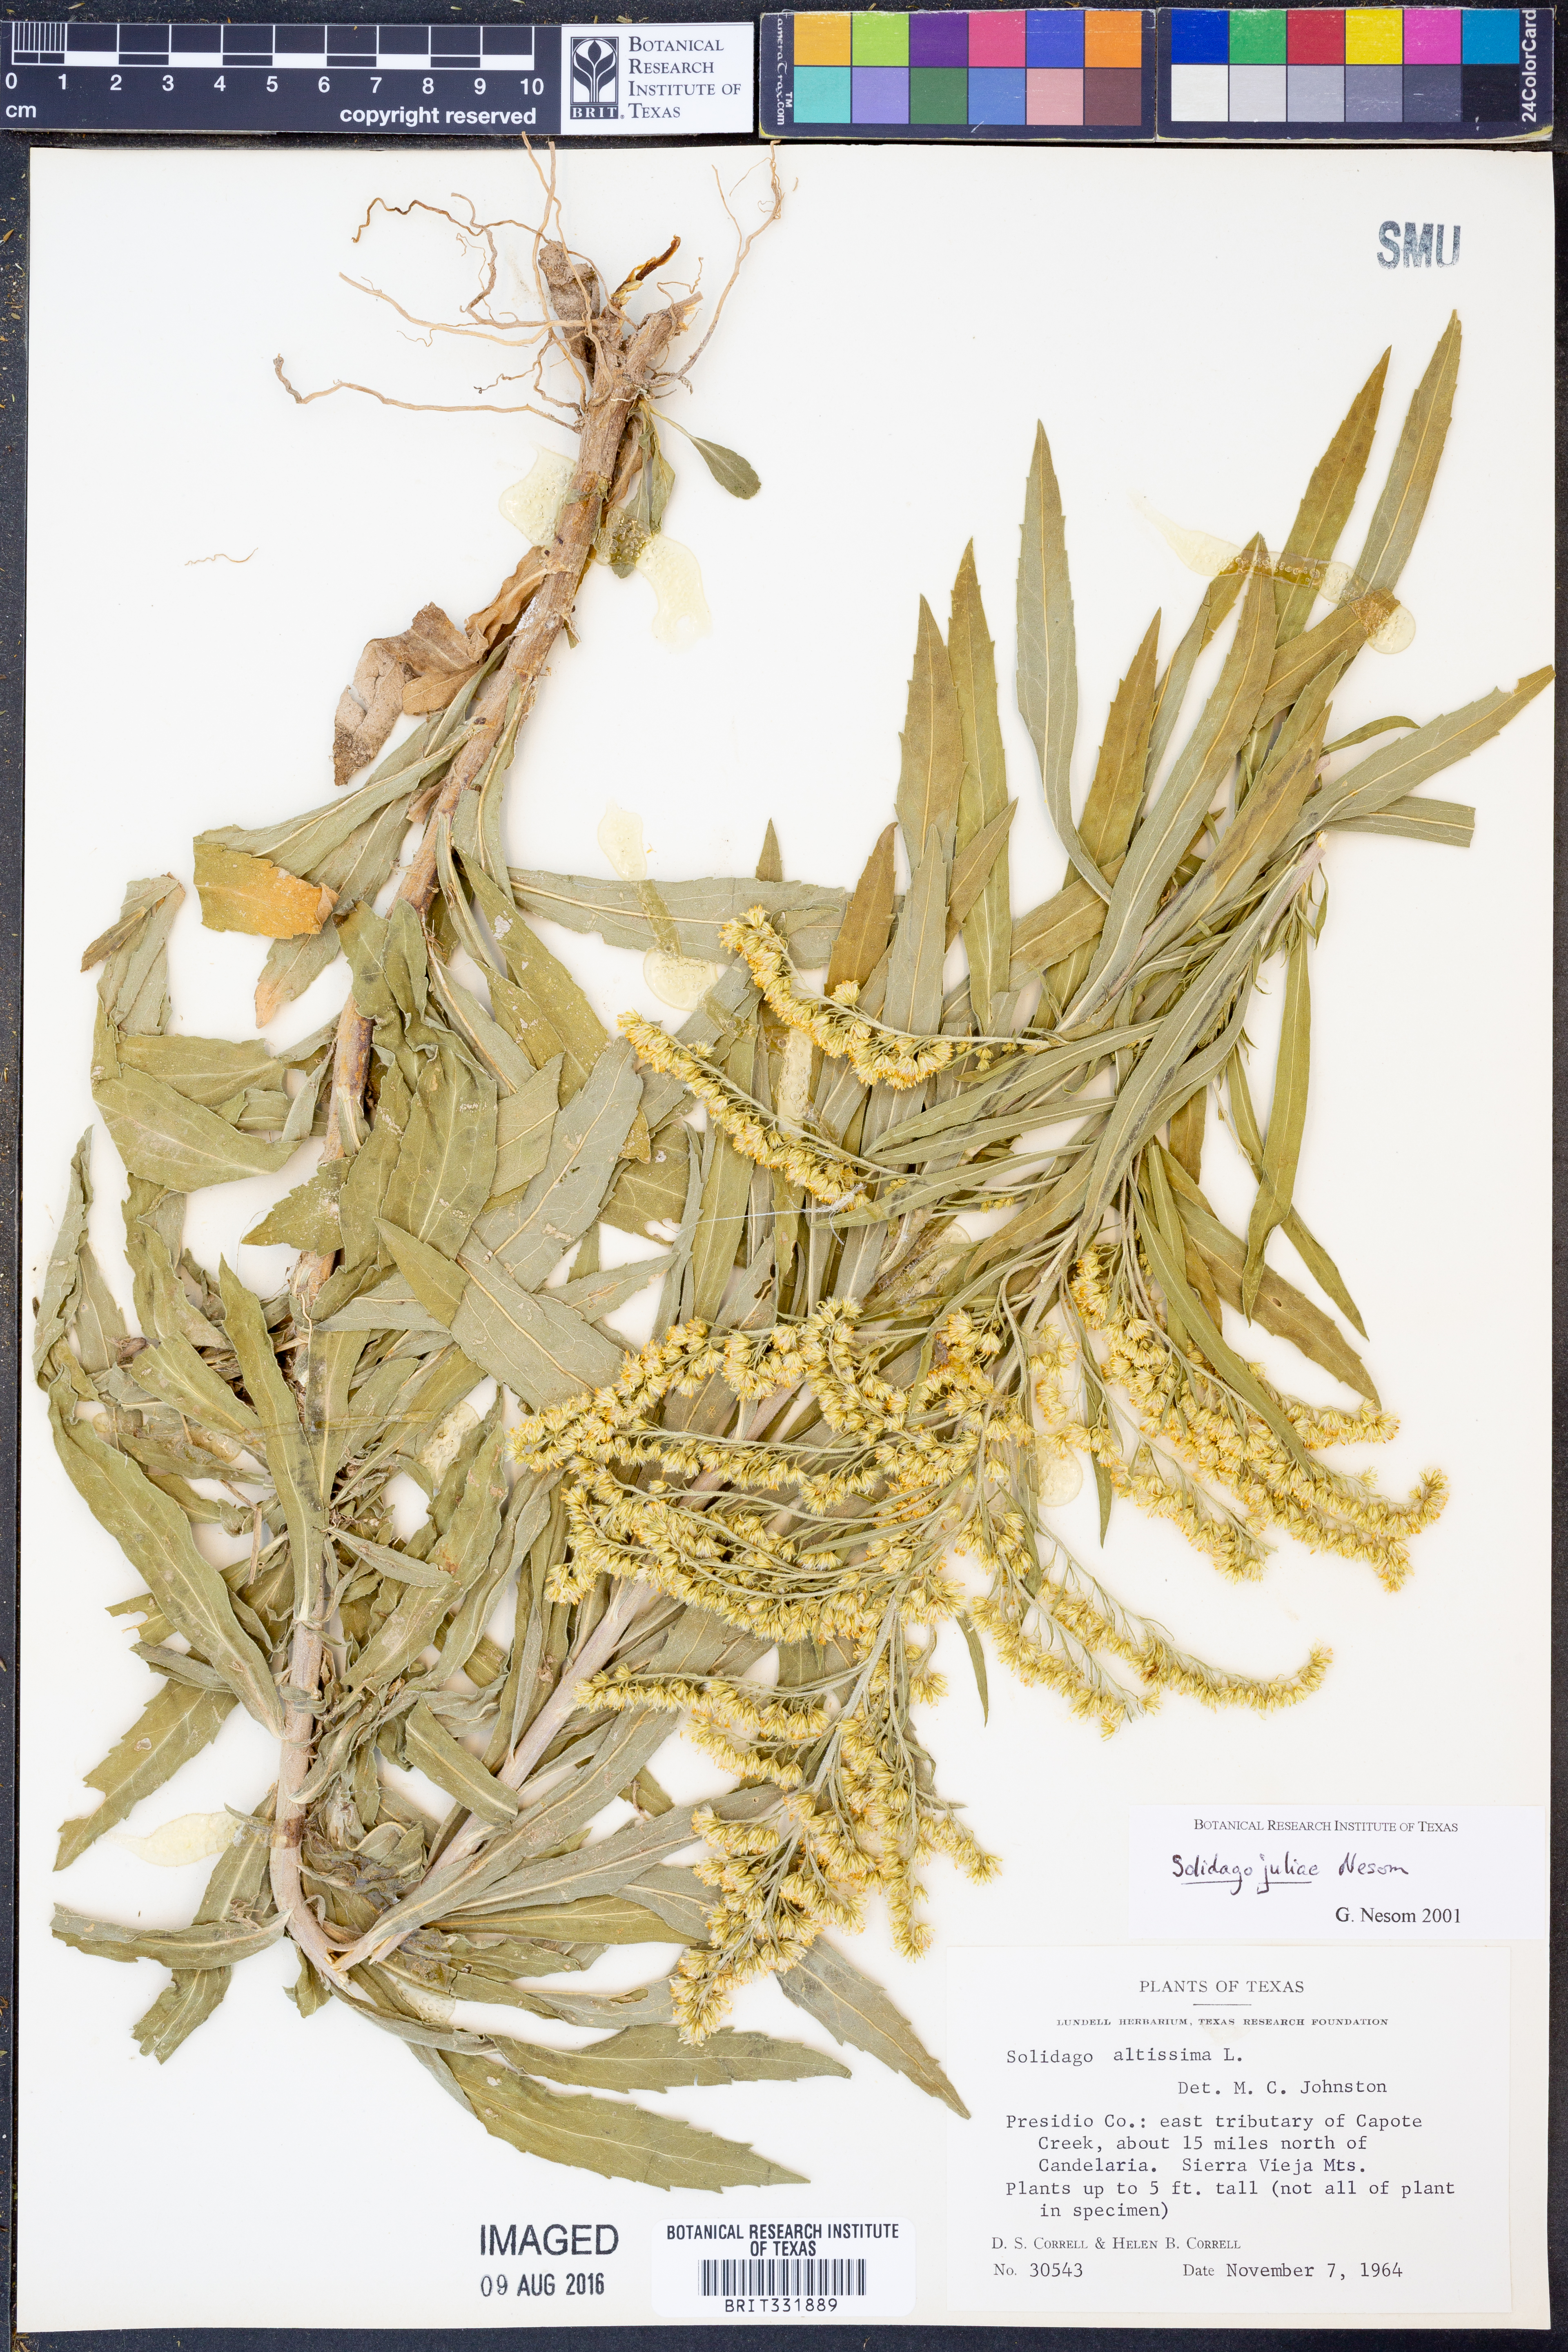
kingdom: Plantae
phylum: Tracheophyta
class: Magnoliopsida
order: Asterales
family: Asteraceae
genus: Solidago
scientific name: Solidago juliae
